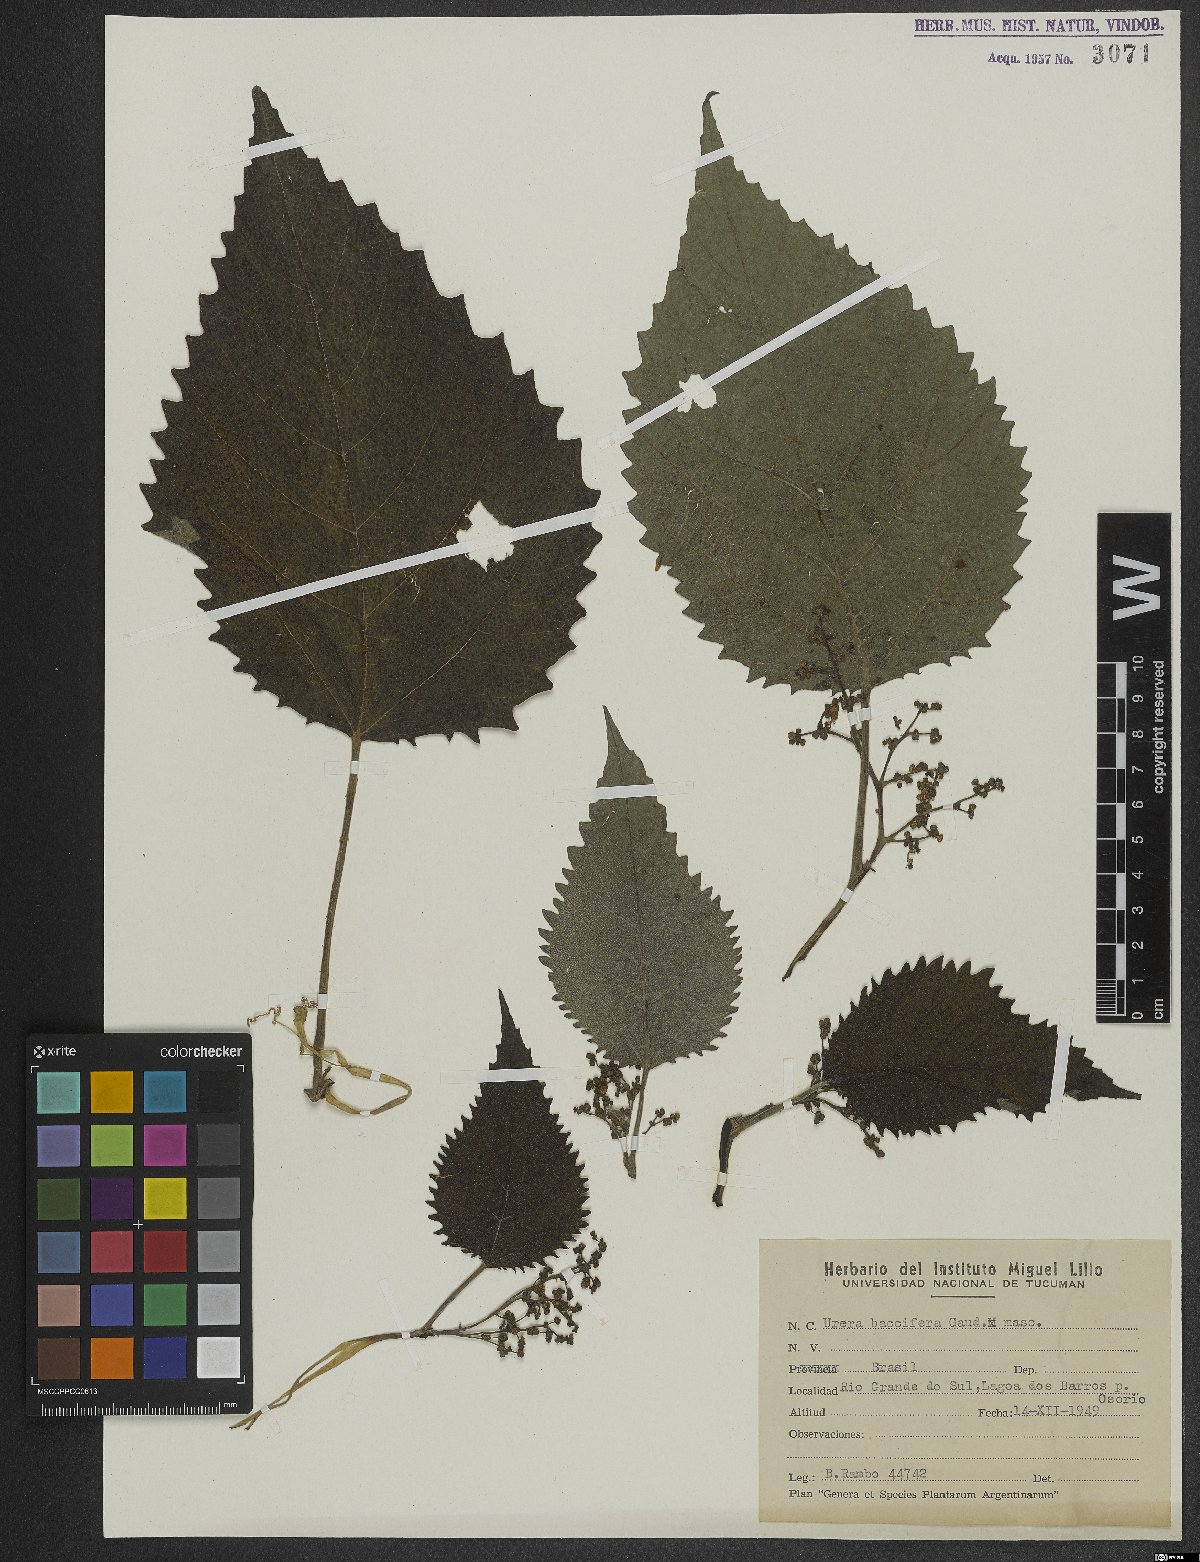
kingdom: Plantae
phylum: Tracheophyta
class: Magnoliopsida
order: Rosales
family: Urticaceae
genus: Urera
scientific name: Urera baccifera
